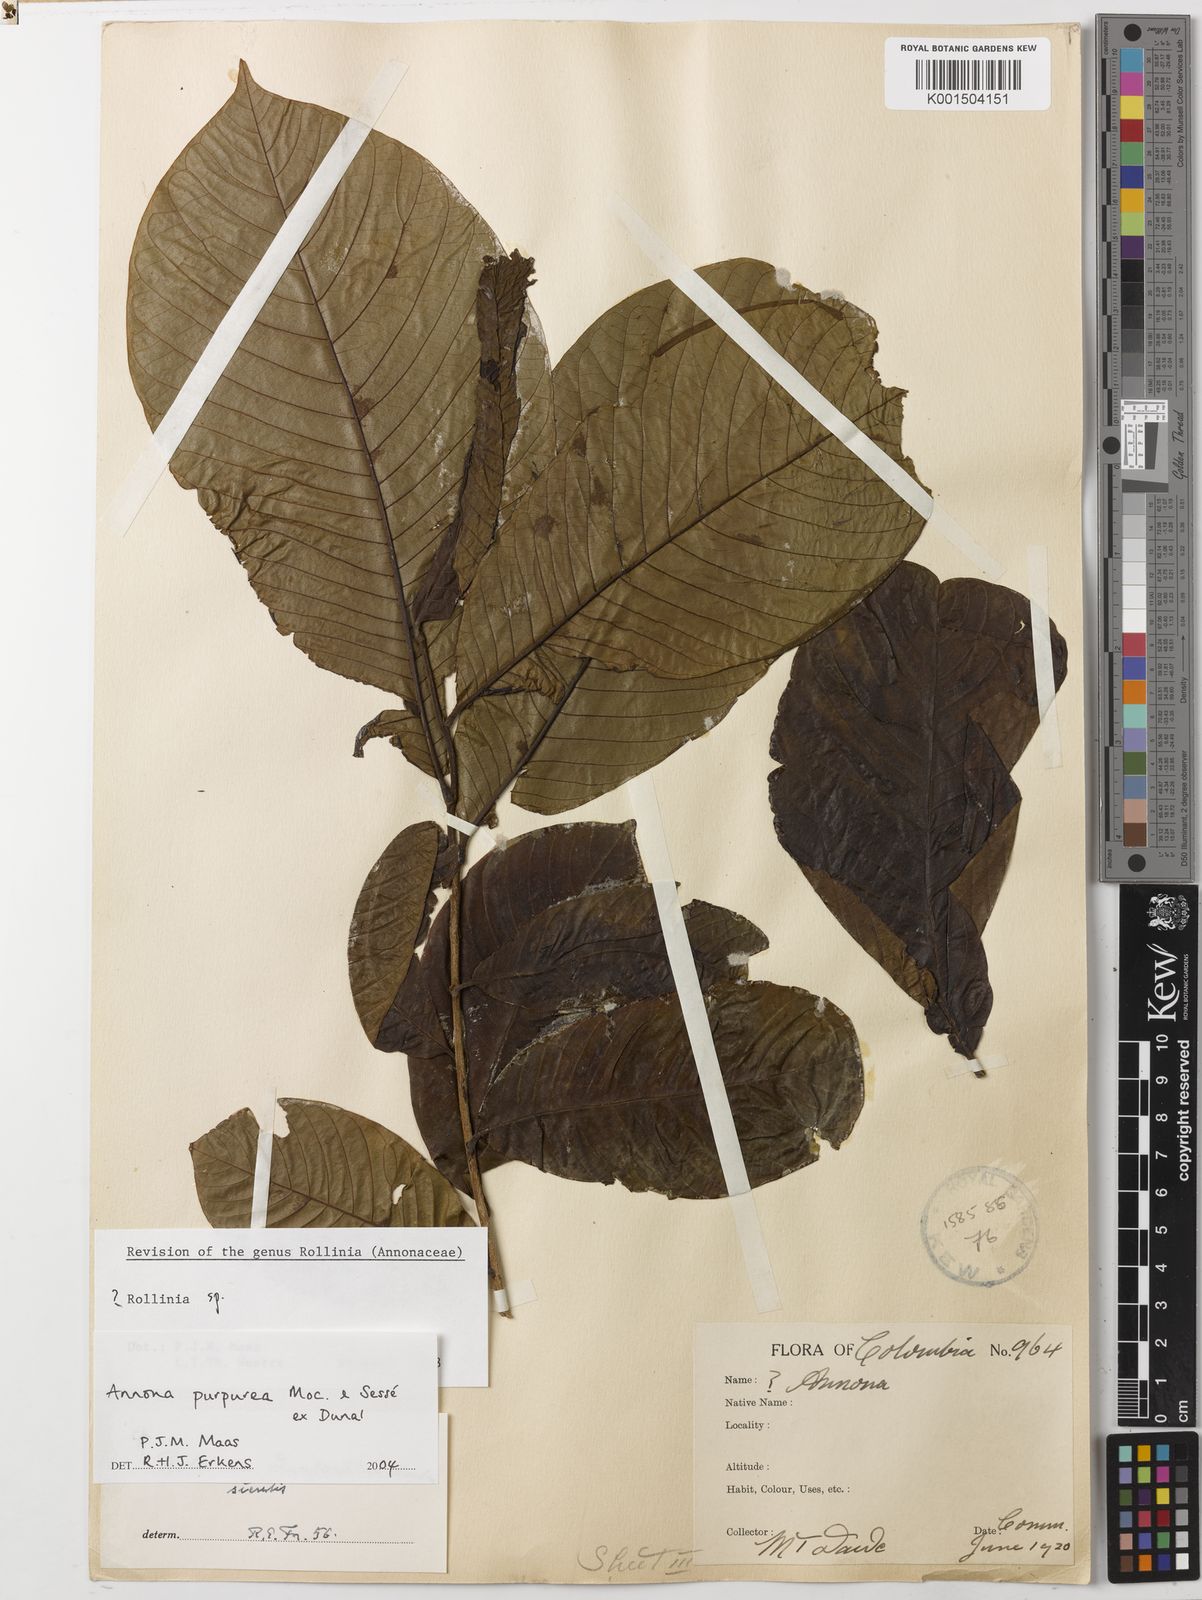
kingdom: Plantae
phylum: Tracheophyta
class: Magnoliopsida
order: Magnoliales
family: Annonaceae
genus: Annona
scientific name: Annona purpurea
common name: Negrohead
